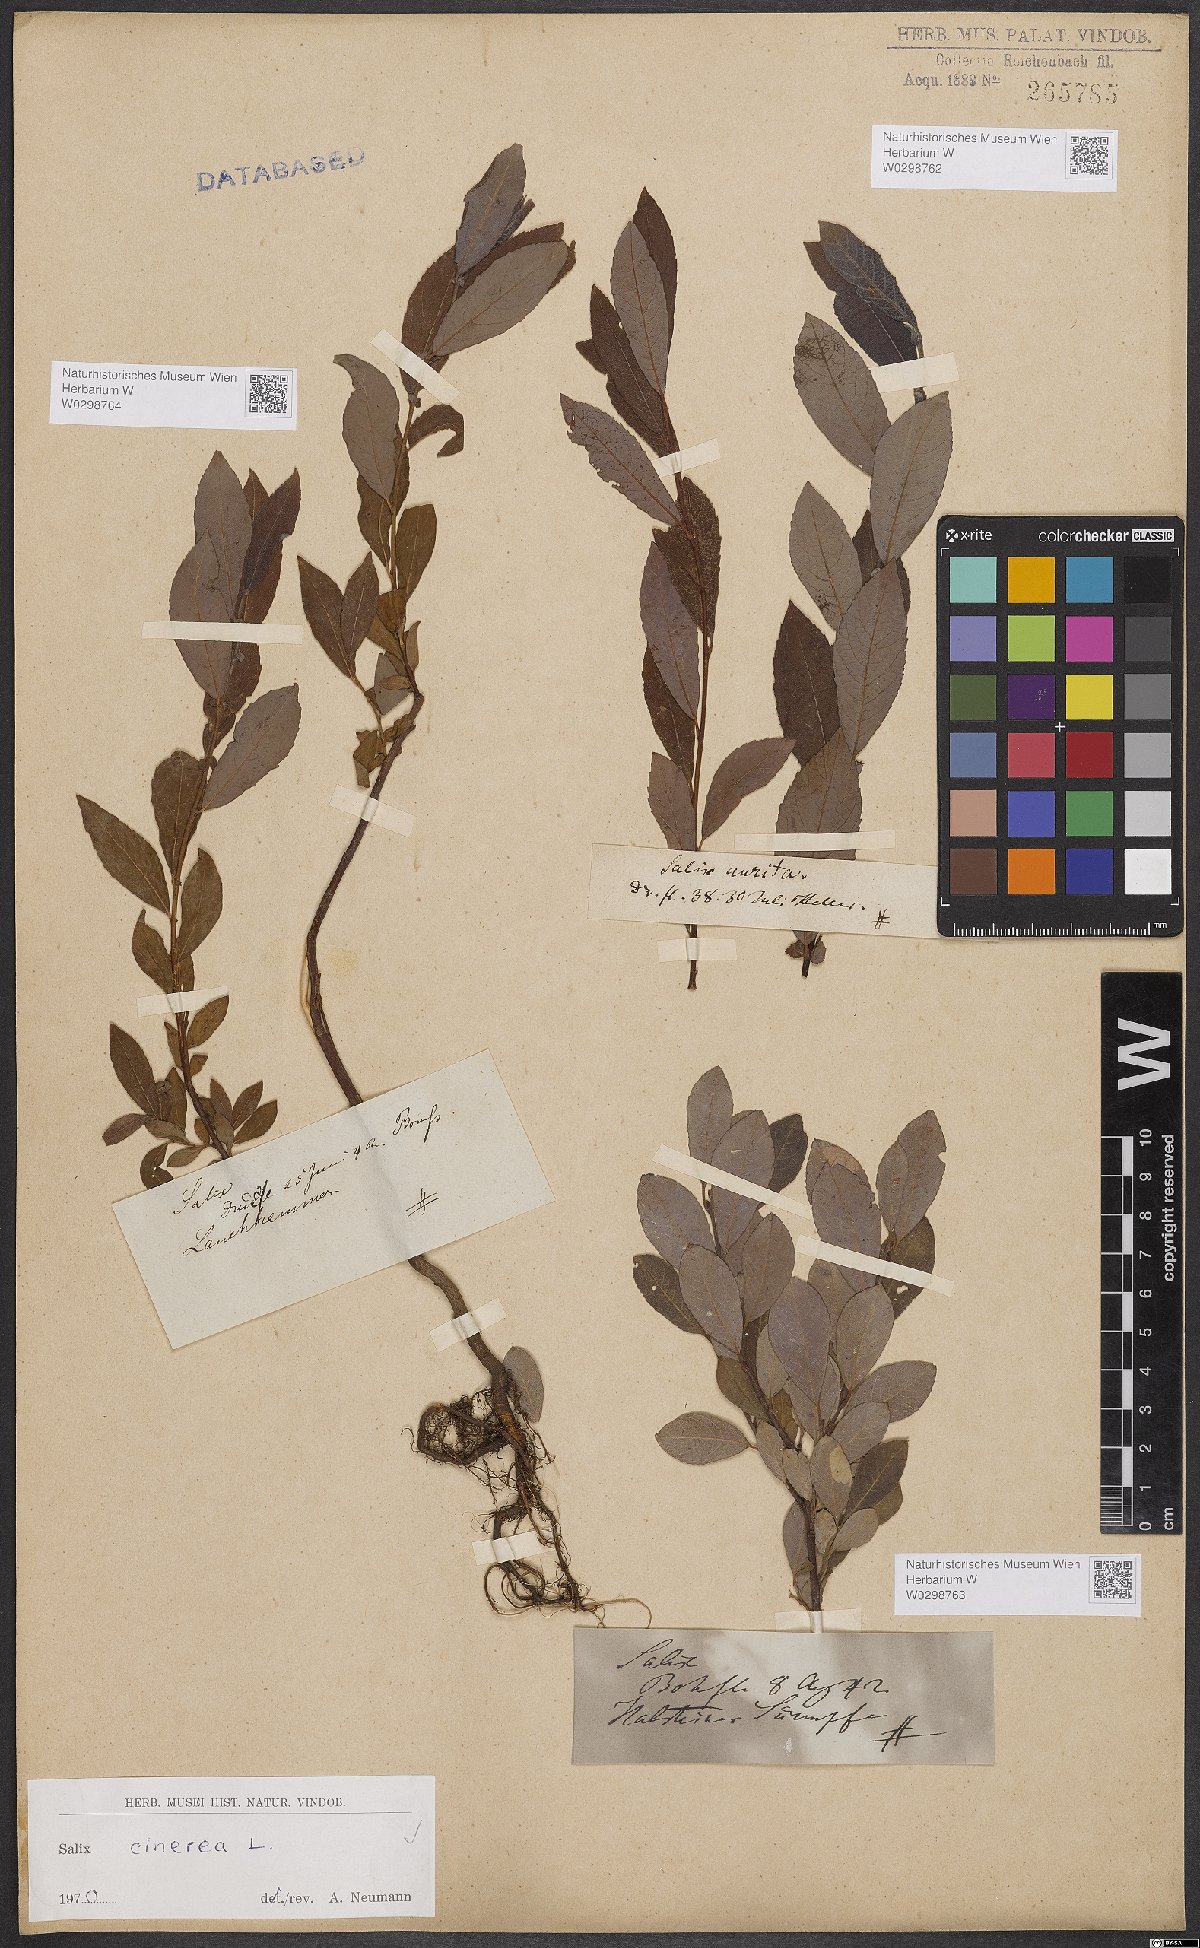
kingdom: Plantae
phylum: Tracheophyta
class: Magnoliopsida
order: Malpighiales
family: Salicaceae
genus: Salix
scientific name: Salix cinerea
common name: Common sallow
